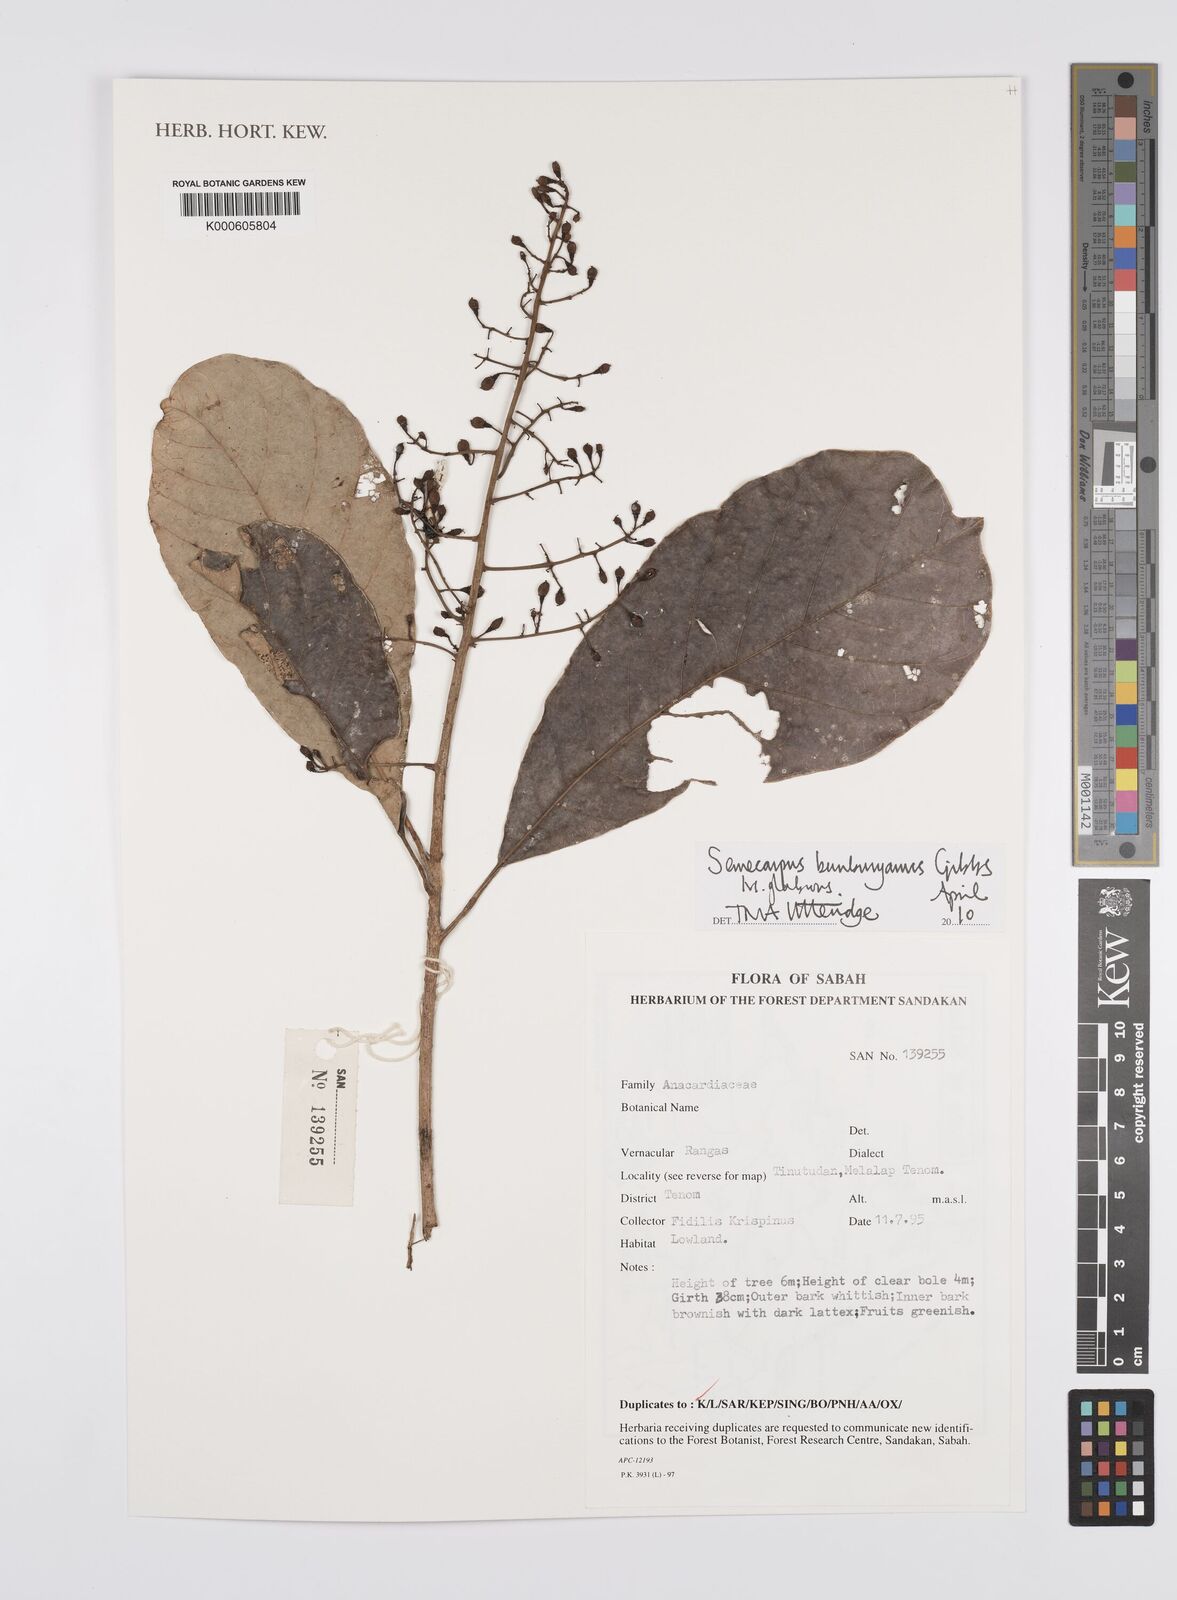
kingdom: Plantae
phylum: Tracheophyta
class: Magnoliopsida
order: Sapindales
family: Anacardiaceae
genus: Semecarpus
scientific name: Semecarpus bunburyanus
